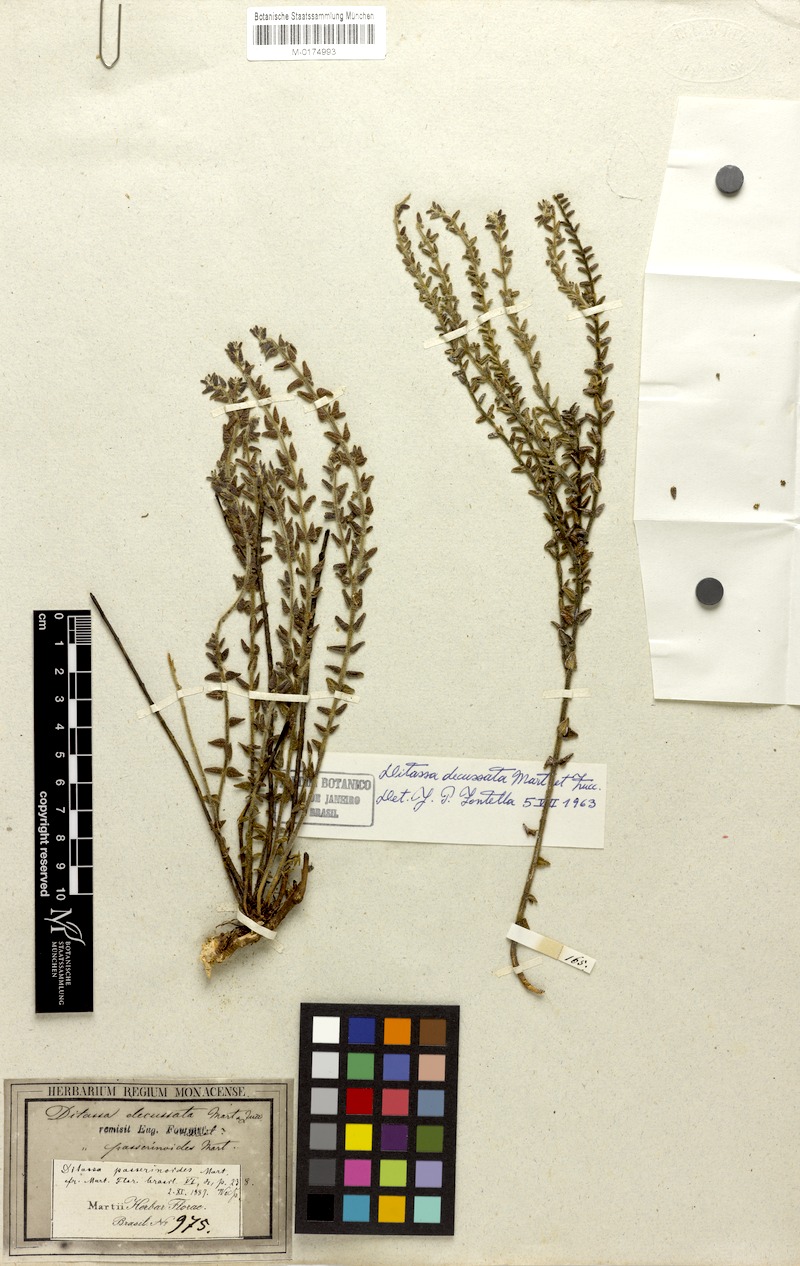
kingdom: Plantae
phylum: Tracheophyta
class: Magnoliopsida
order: Gentianales
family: Apocynaceae
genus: Minaria
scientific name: Minaria decussata
